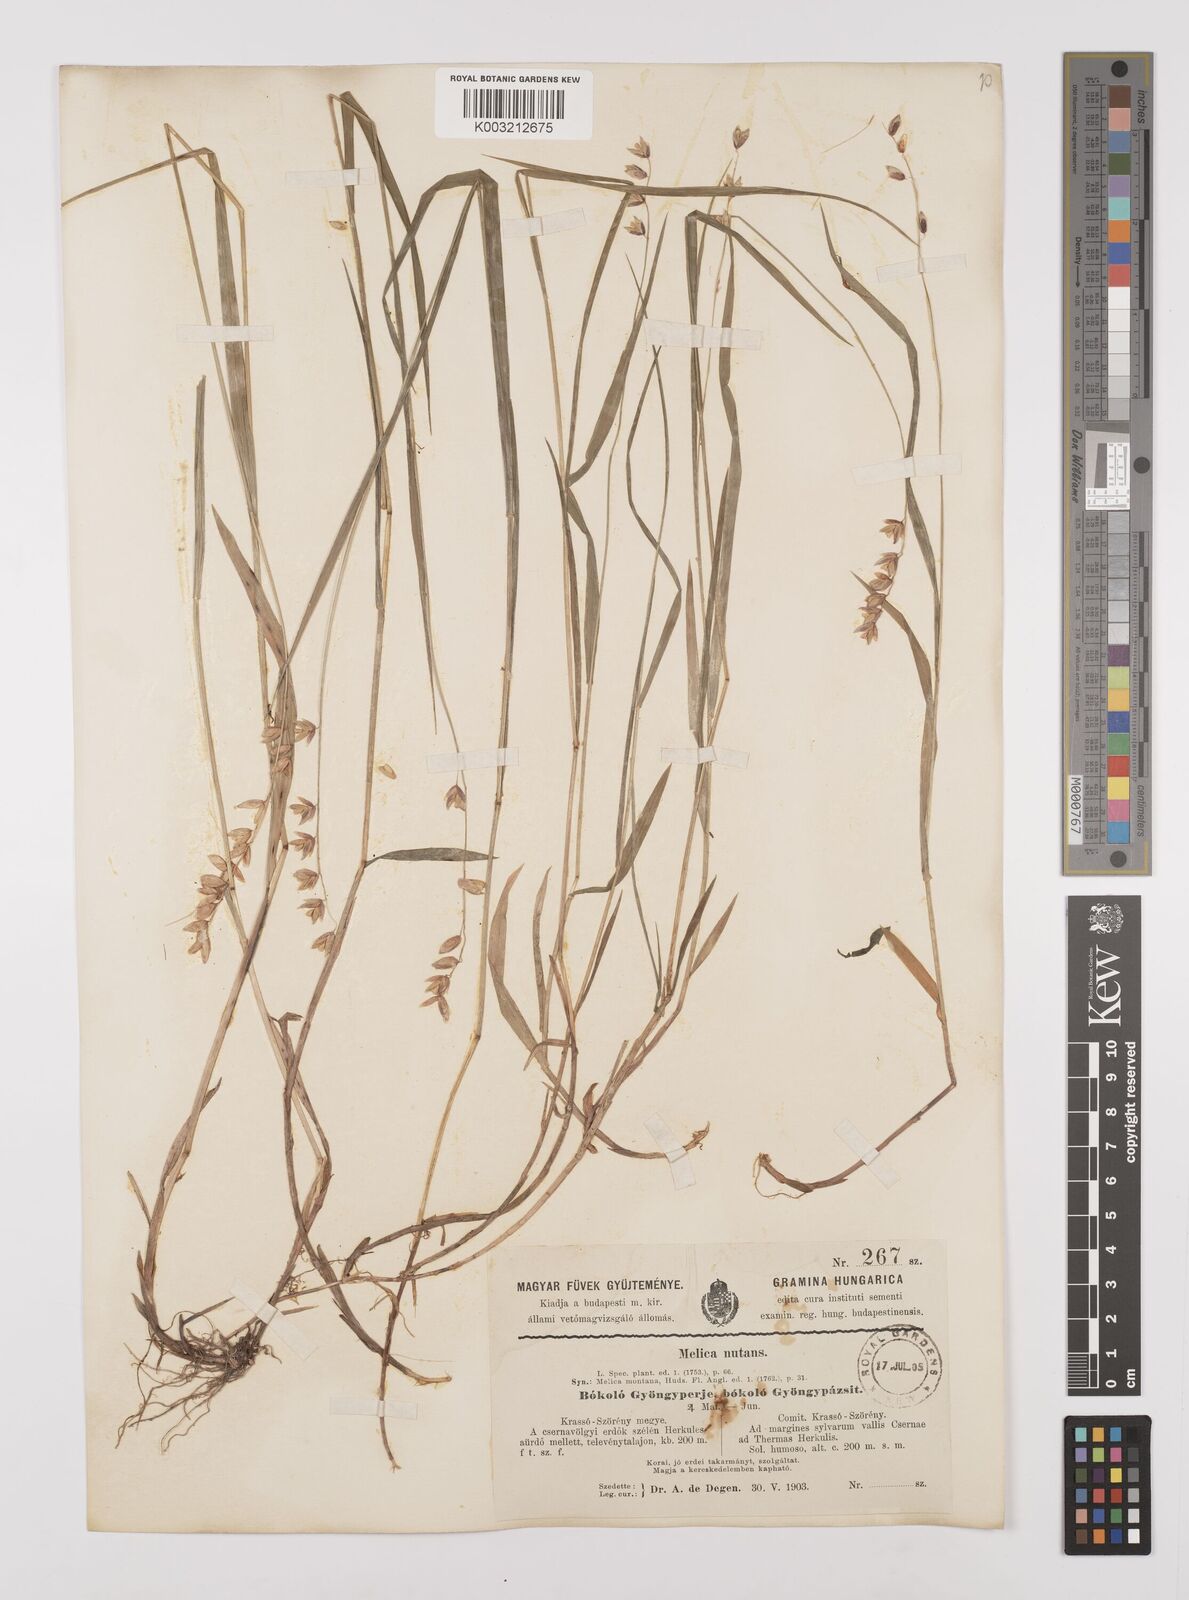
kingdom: Plantae
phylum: Tracheophyta
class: Liliopsida
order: Poales
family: Poaceae
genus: Melica
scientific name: Melica nutans
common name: Mountain melick
